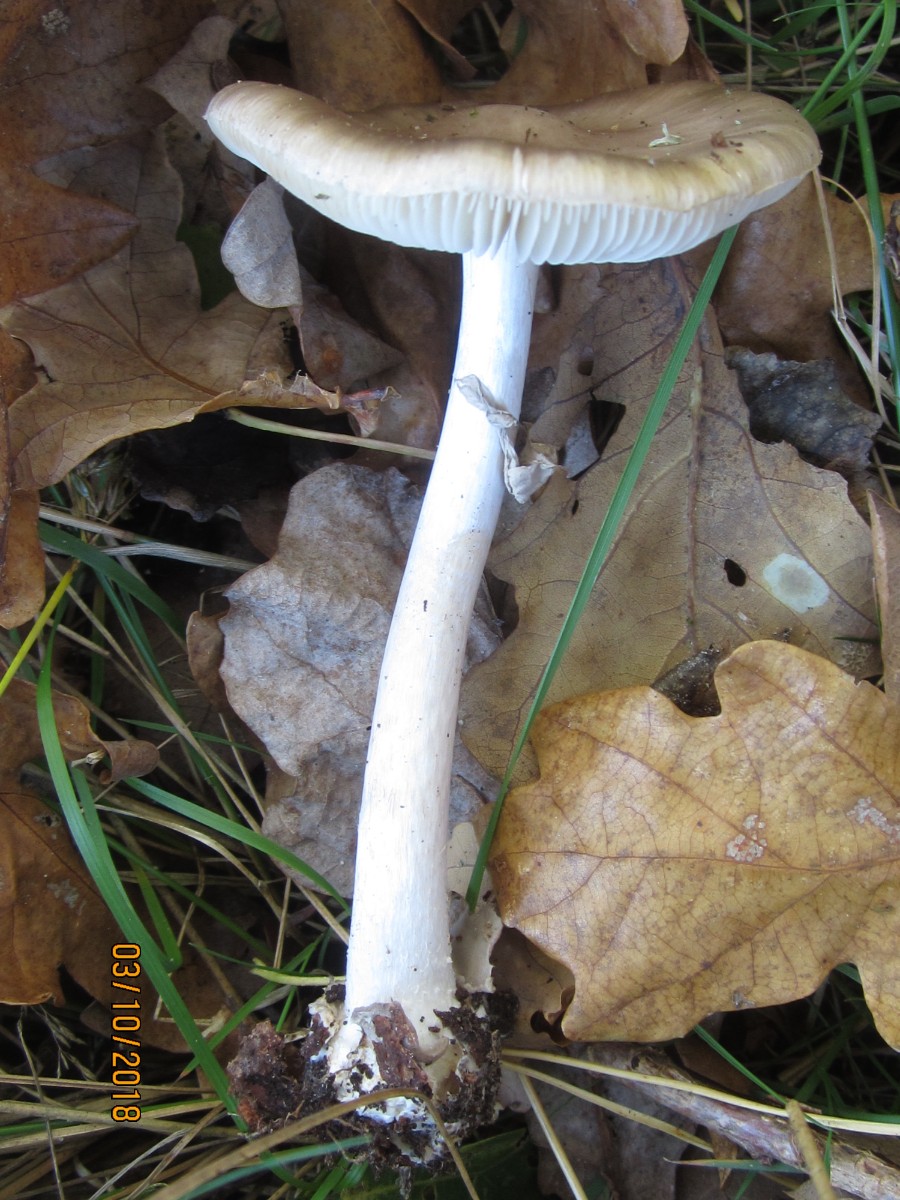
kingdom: Fungi
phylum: Basidiomycota
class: Agaricomycetes
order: Agaricales
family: Amanitaceae
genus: Amanita
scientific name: Amanita porphyria
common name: porfyr-fluesvamp
